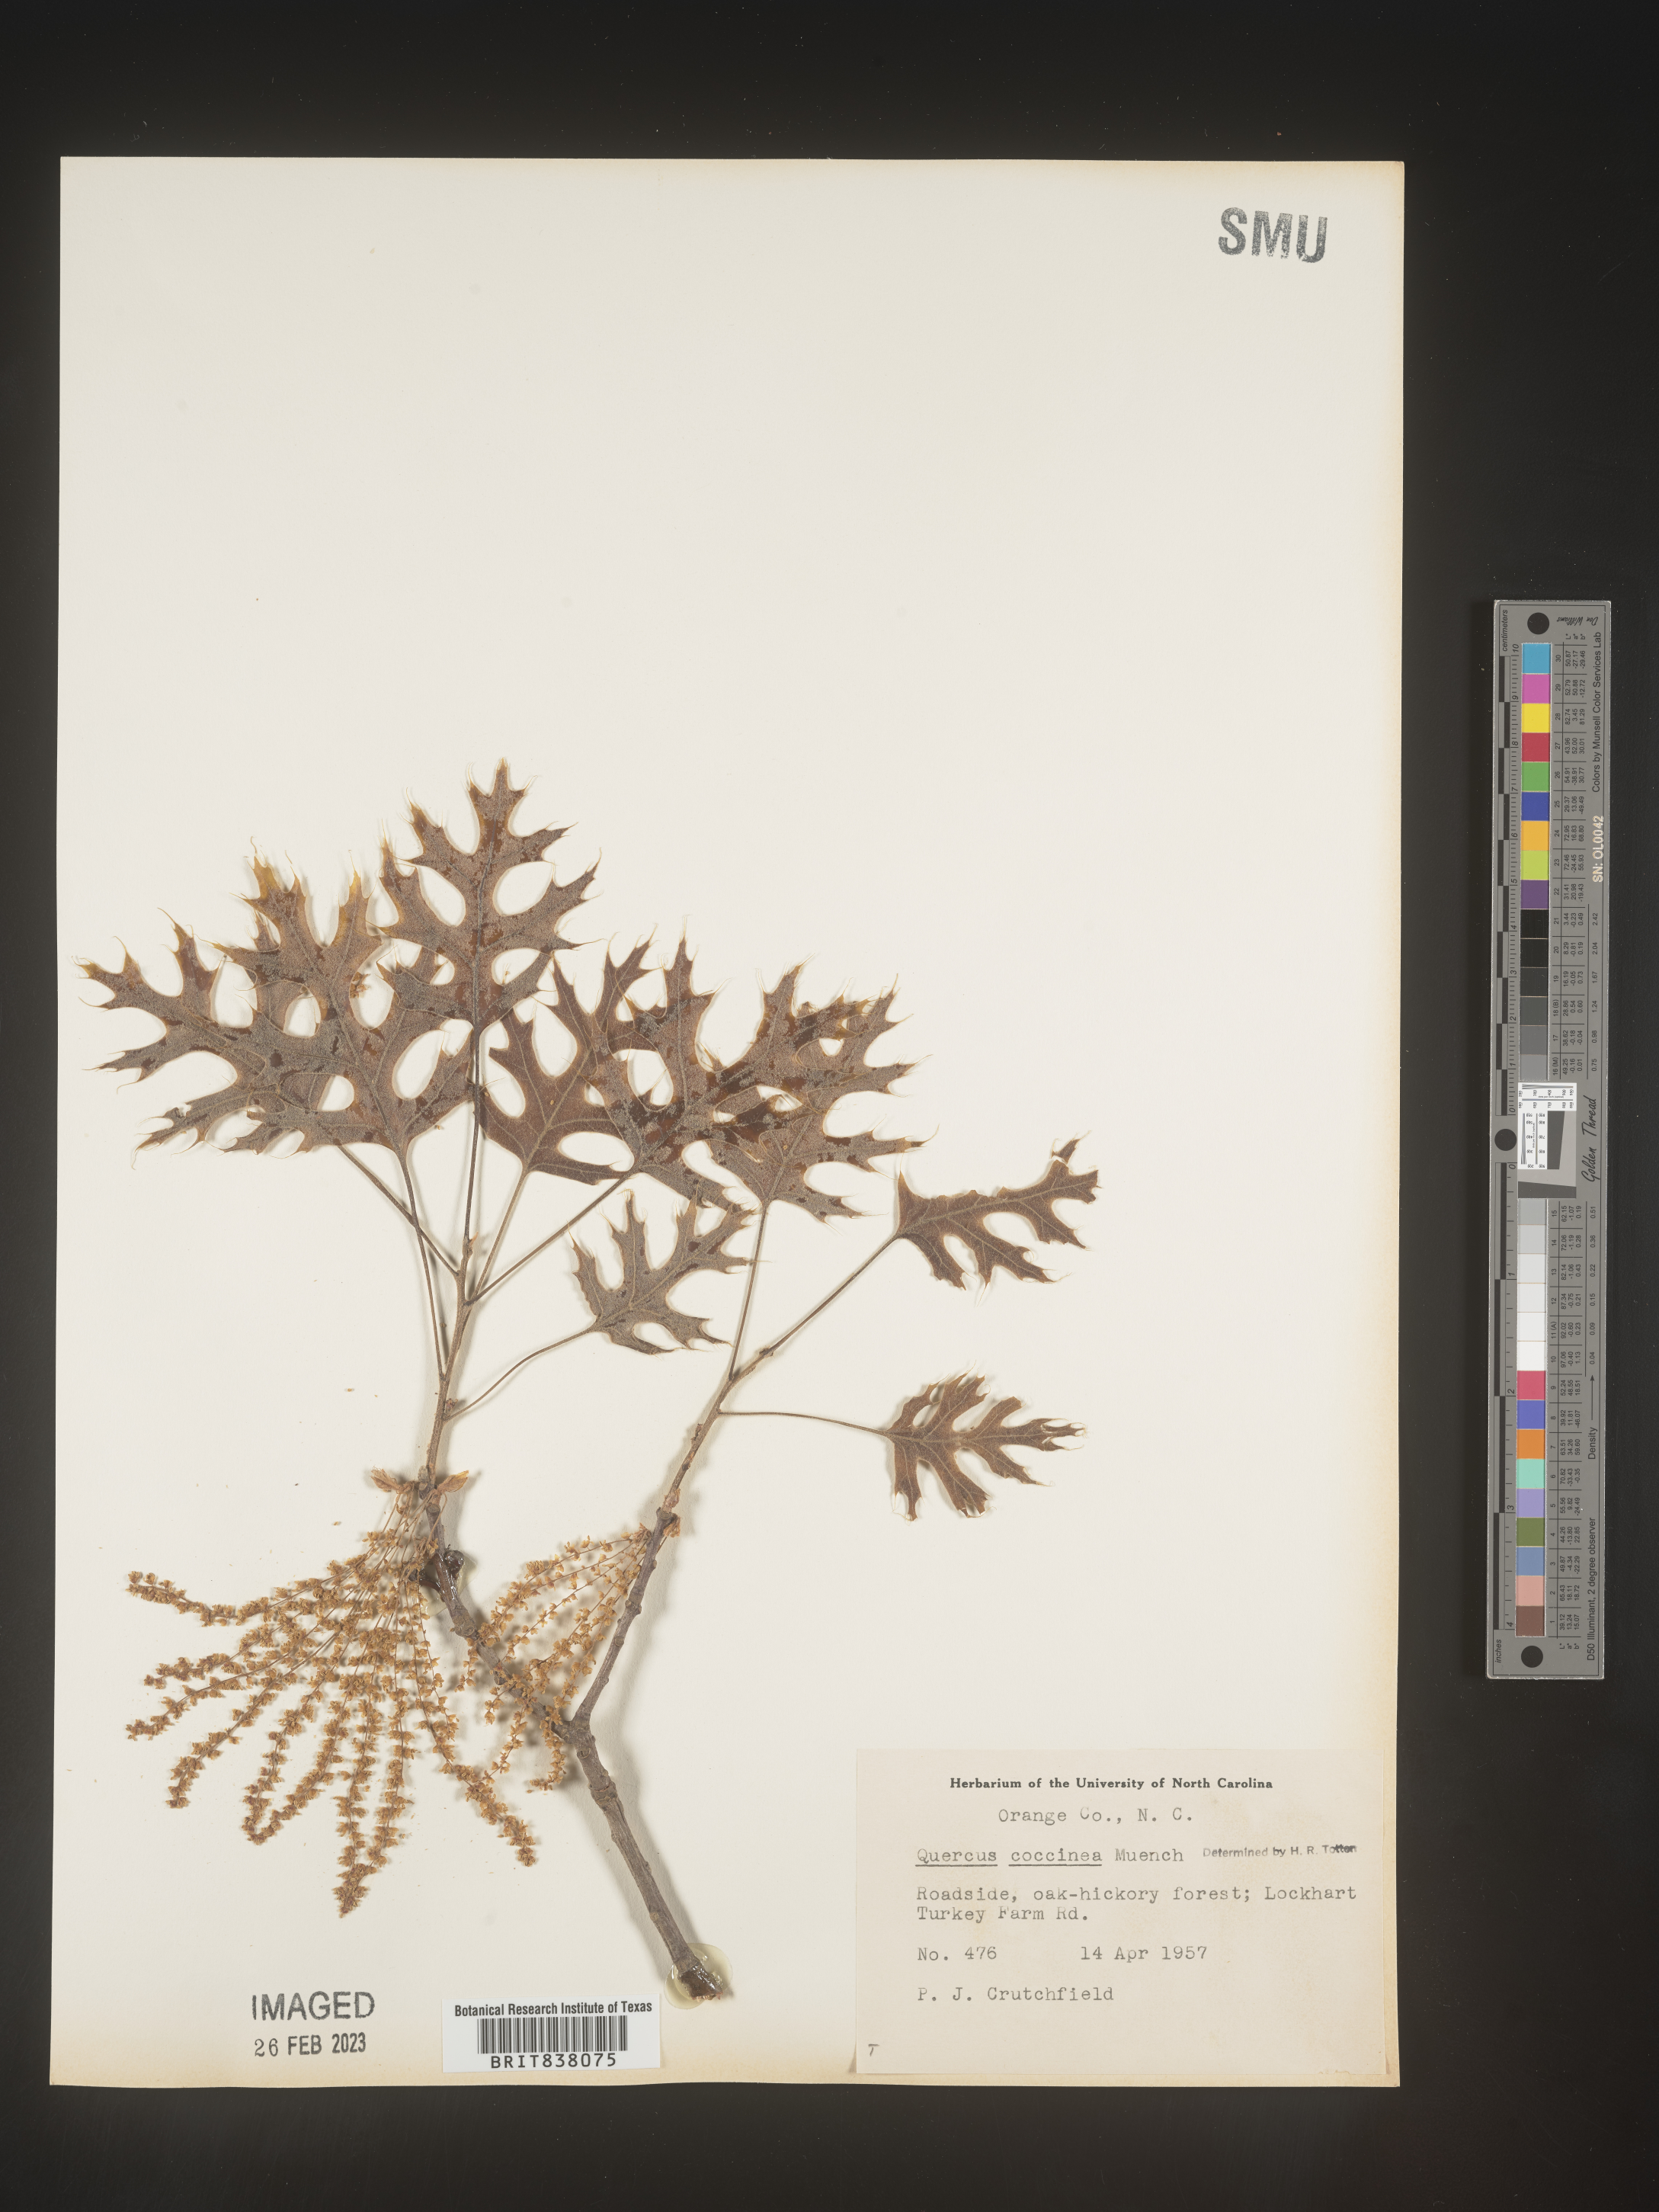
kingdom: Plantae
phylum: Tracheophyta
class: Magnoliopsida
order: Fagales
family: Fagaceae
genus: Quercus
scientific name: Quercus coccinea
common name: Scarlet oak
